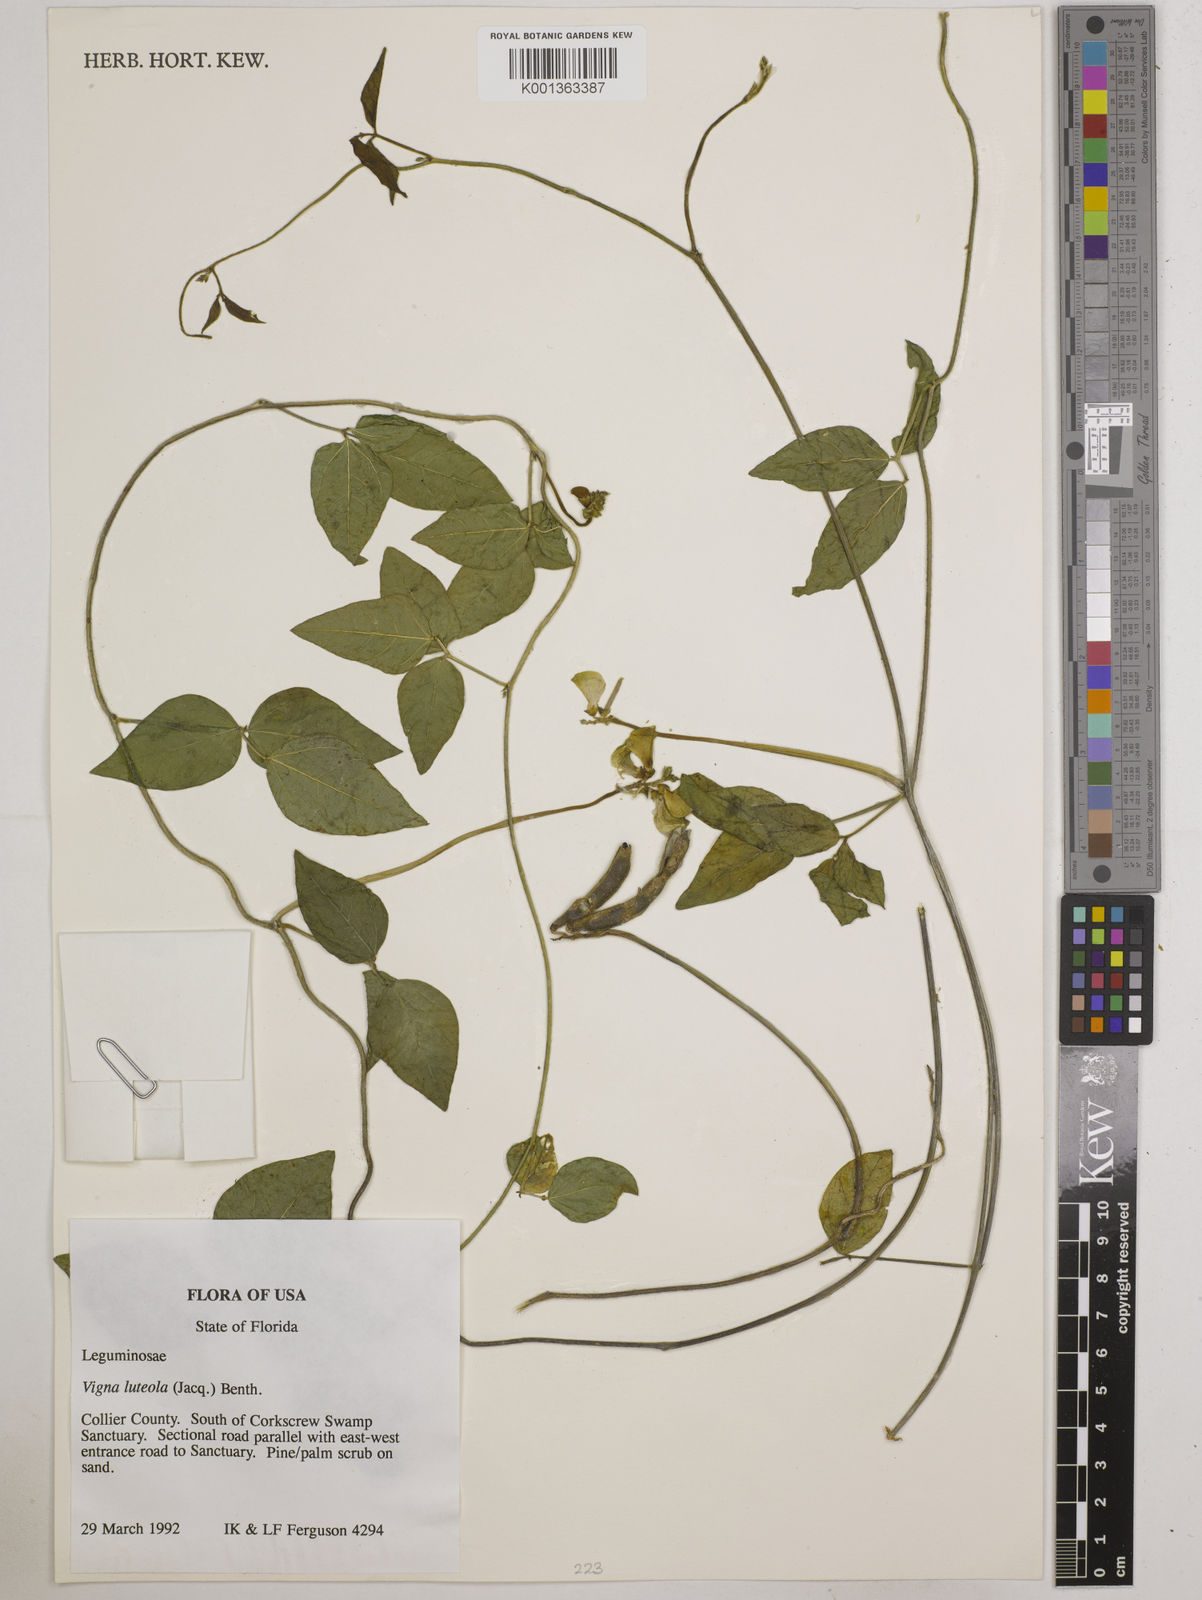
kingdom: Plantae
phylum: Tracheophyta
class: Magnoliopsida
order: Fabales
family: Fabaceae
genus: Vigna
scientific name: Vigna luteola
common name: Hairypod cowpea
